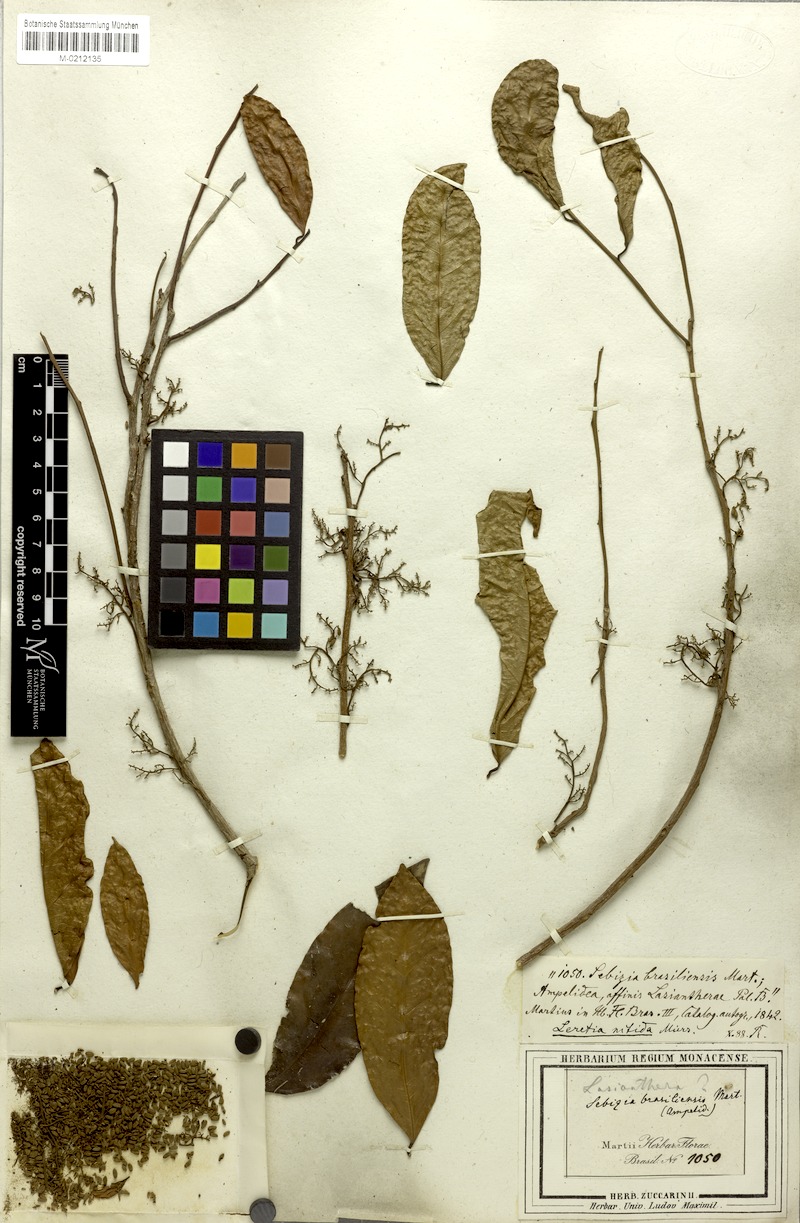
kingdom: Plantae
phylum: Tracheophyta
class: Magnoliopsida
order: Icacinales
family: Icacinaceae
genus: Leretia
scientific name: Leretia cordata
